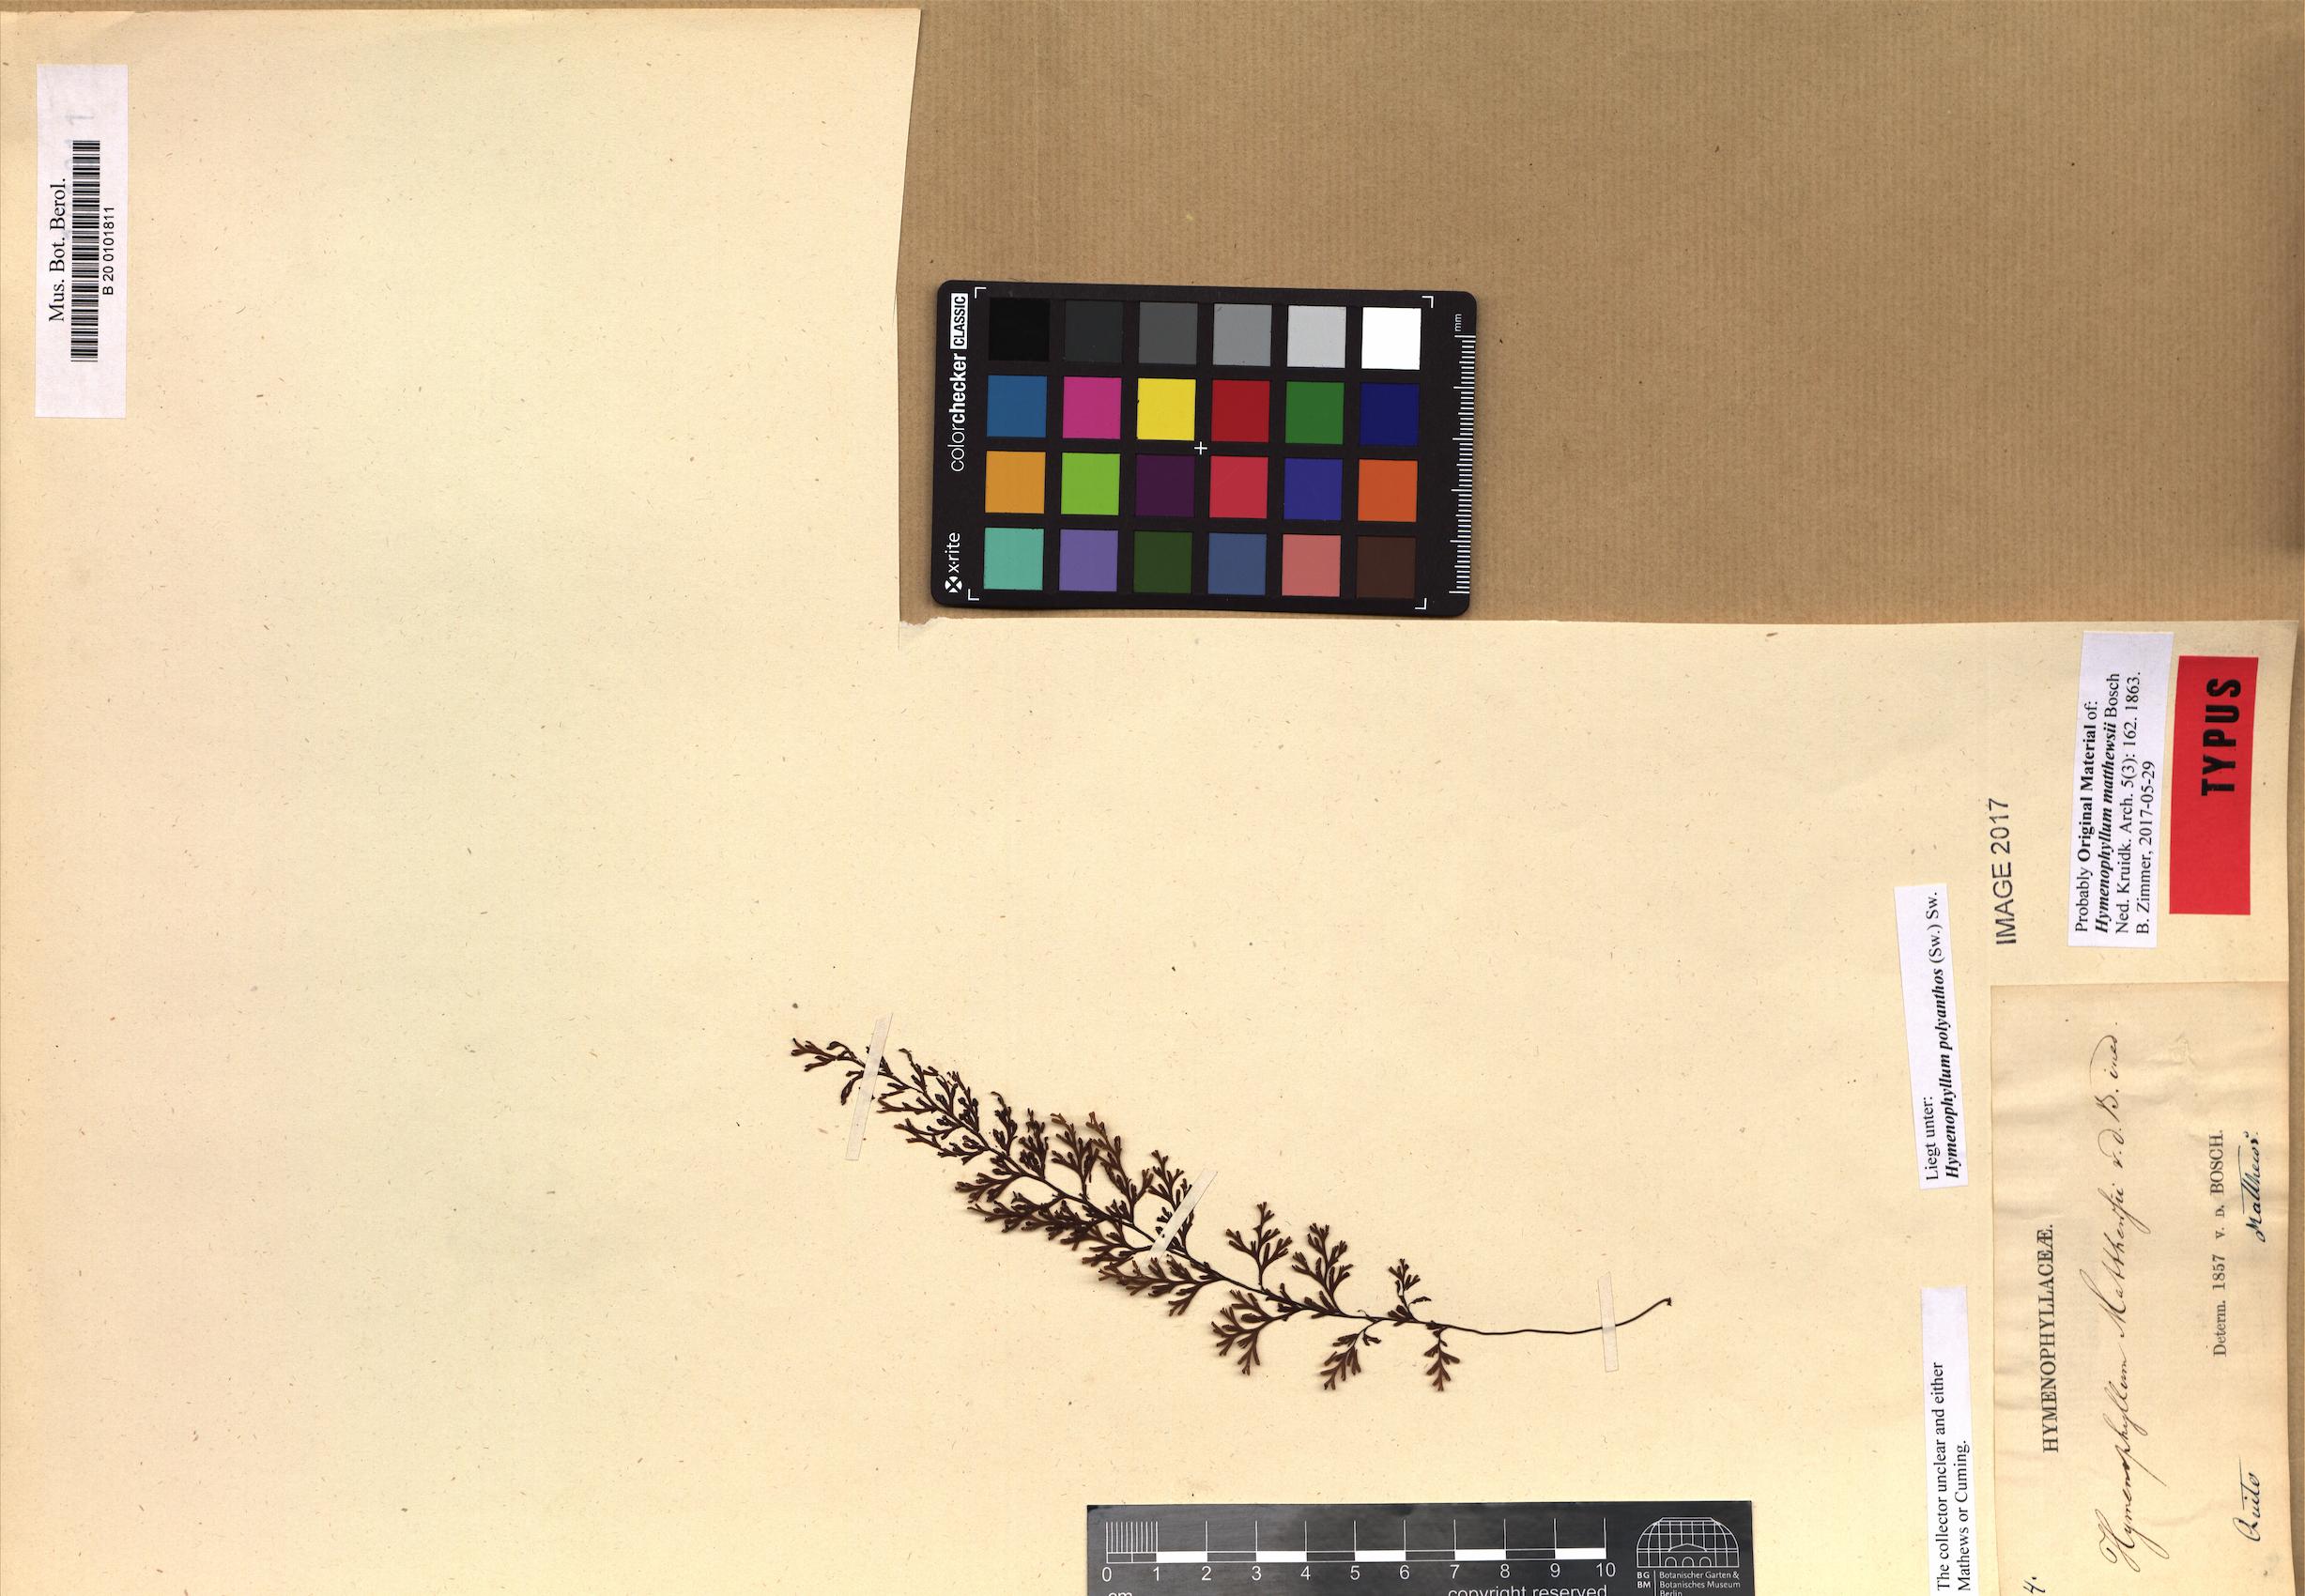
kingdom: Plantae
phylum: Tracheophyta
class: Polypodiopsida
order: Hymenophyllales
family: Hymenophyllaceae
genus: Hymenophyllum
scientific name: Hymenophyllum polyanthos
